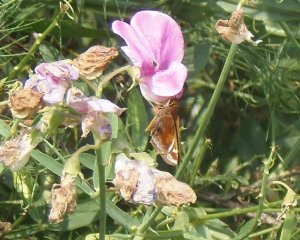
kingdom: Animalia
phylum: Arthropoda
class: Insecta
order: Lepidoptera
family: Hesperiidae
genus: Lon
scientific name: Lon zabulon
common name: Zabulon Skipper
